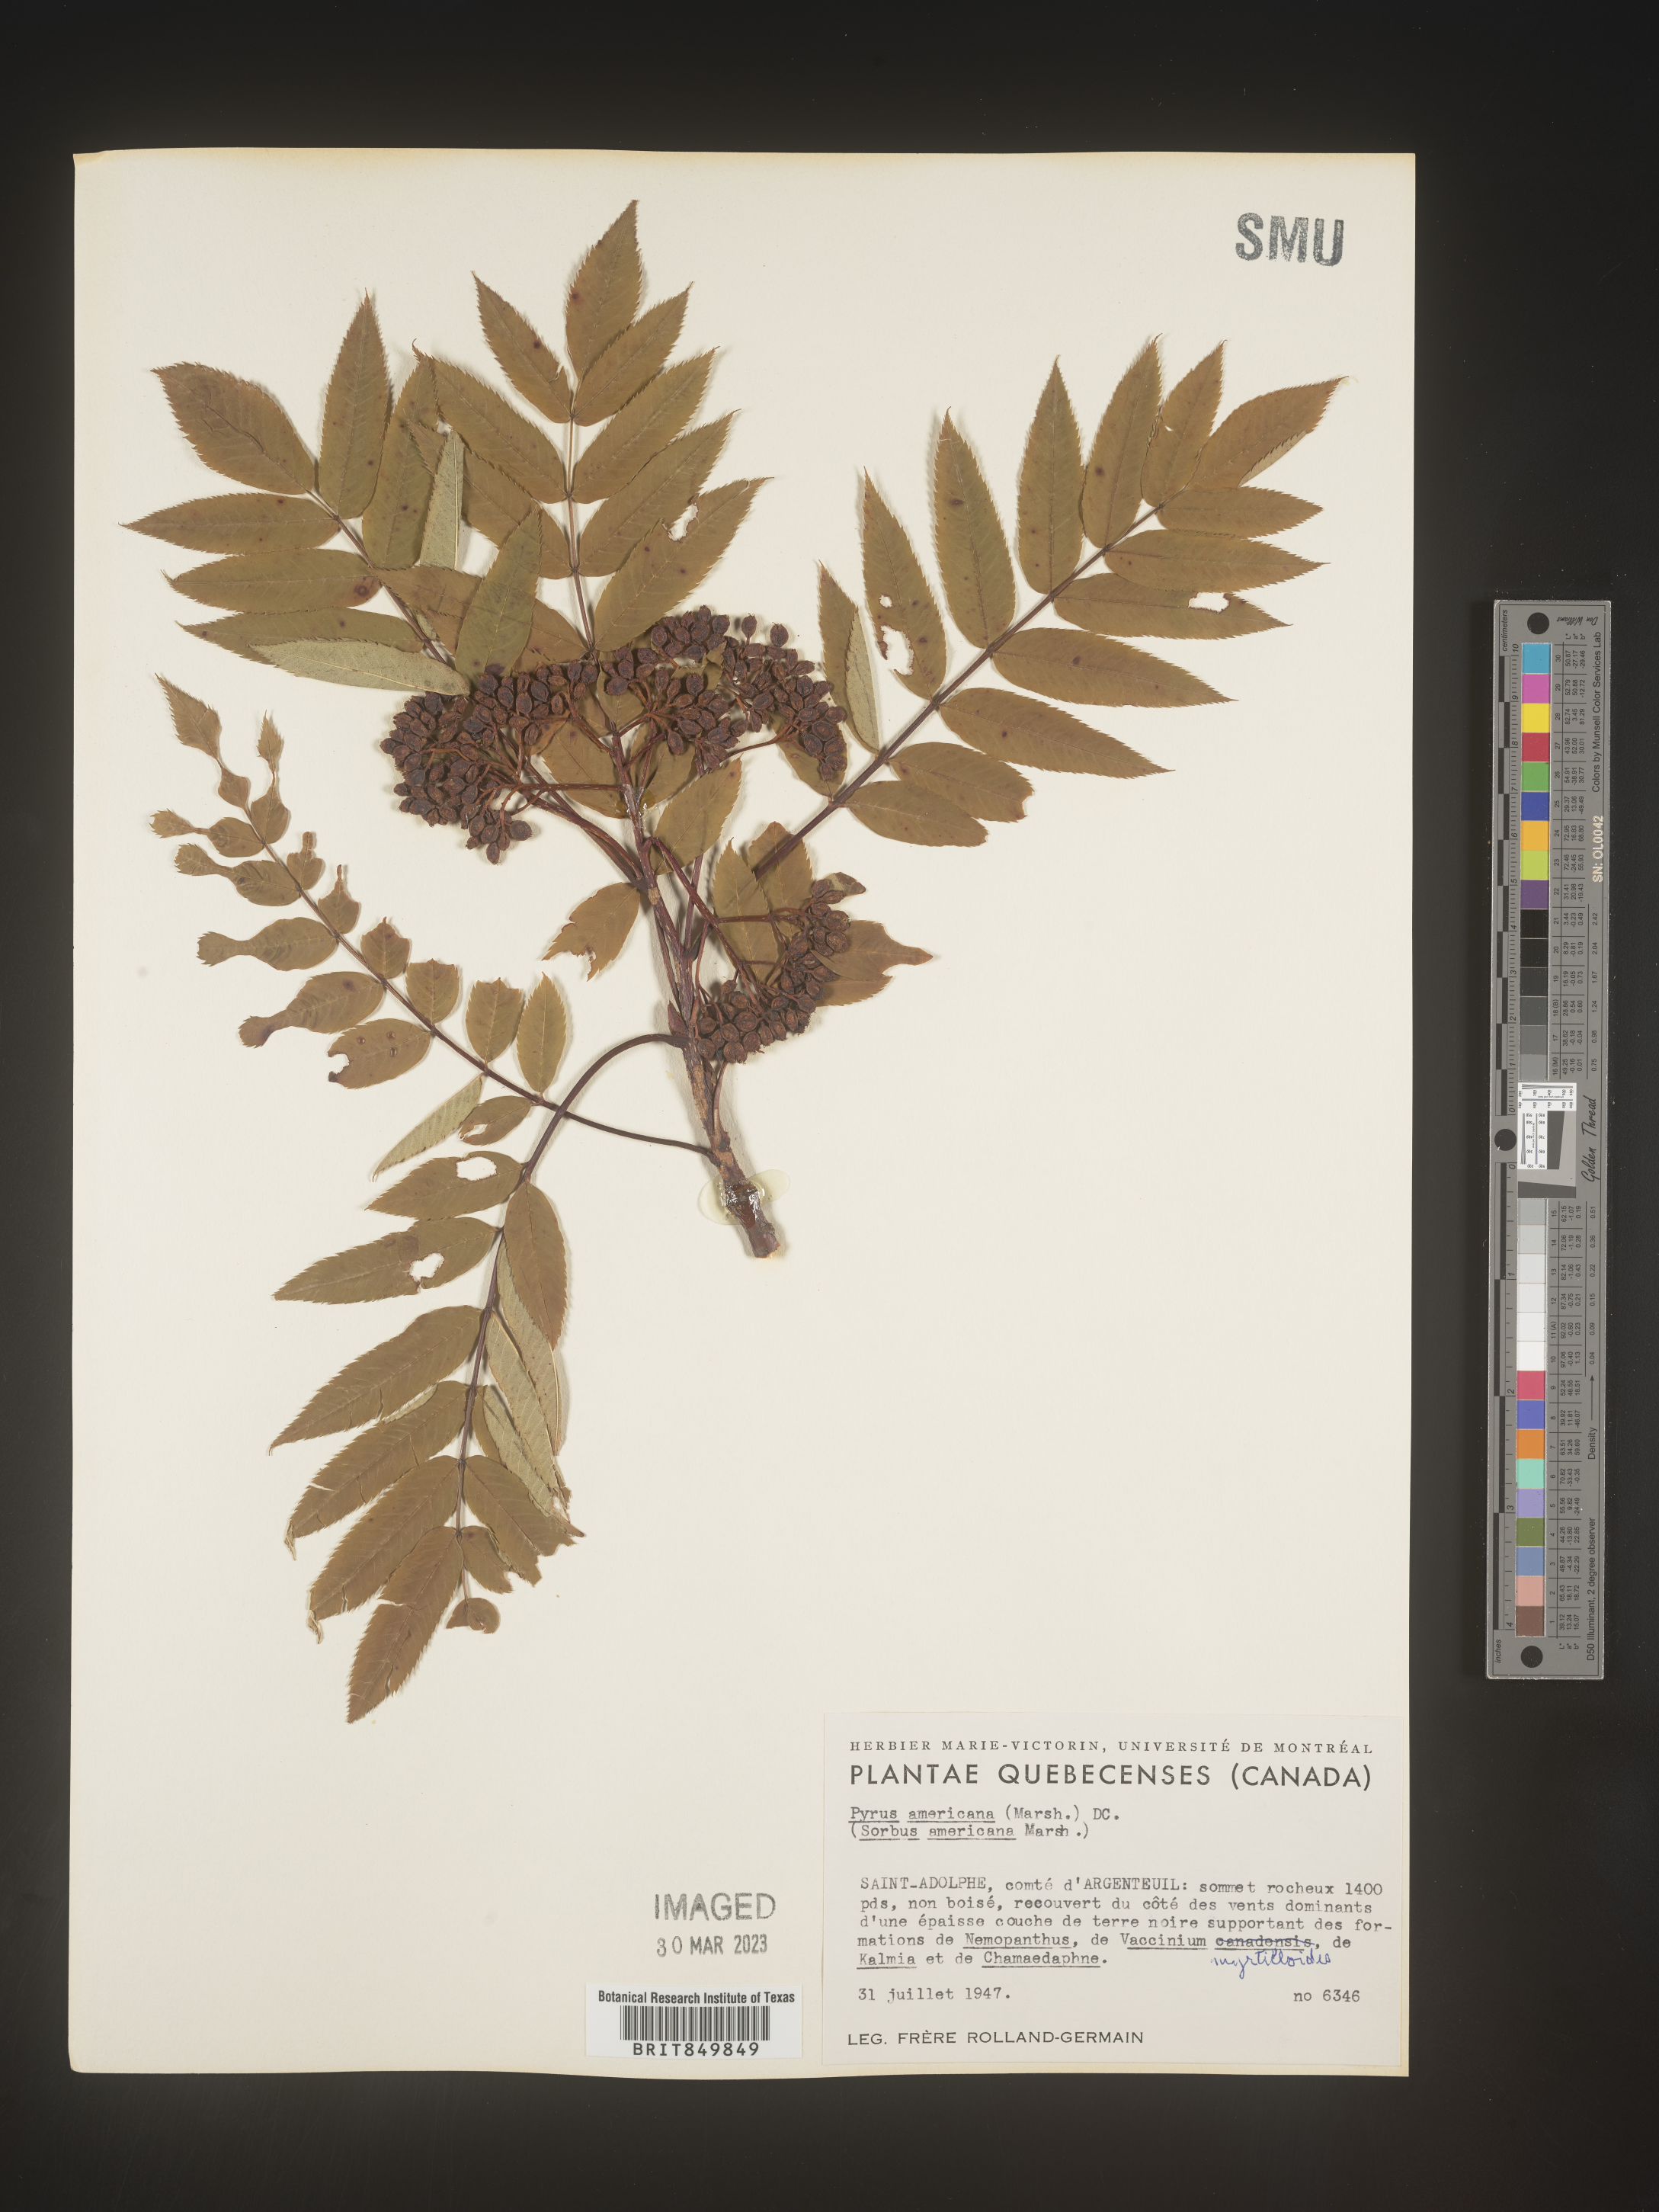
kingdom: Plantae
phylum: Tracheophyta
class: Magnoliopsida
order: Rosales
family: Rosaceae
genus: Sorbus
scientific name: Sorbus
